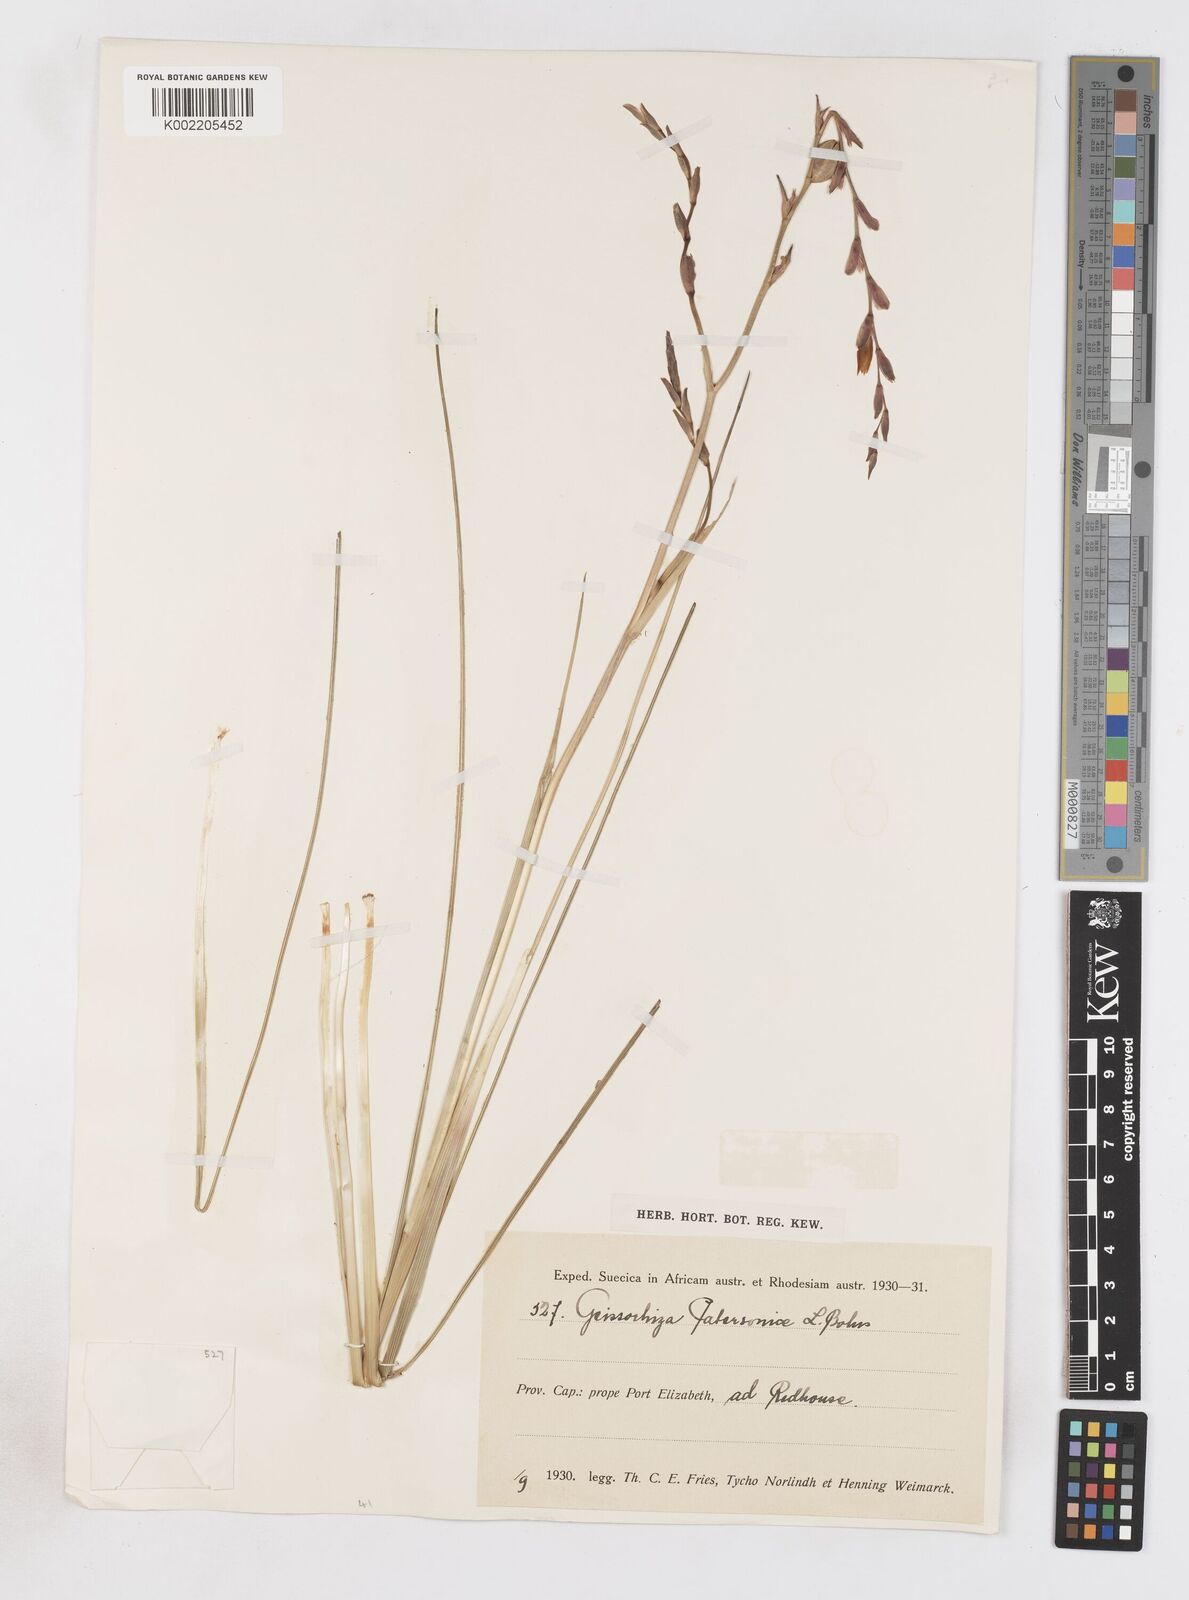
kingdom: Plantae
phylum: Tracheophyta
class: Liliopsida
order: Asparagales
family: Iridaceae
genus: Gladiolus
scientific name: Gladiolus stellatus
